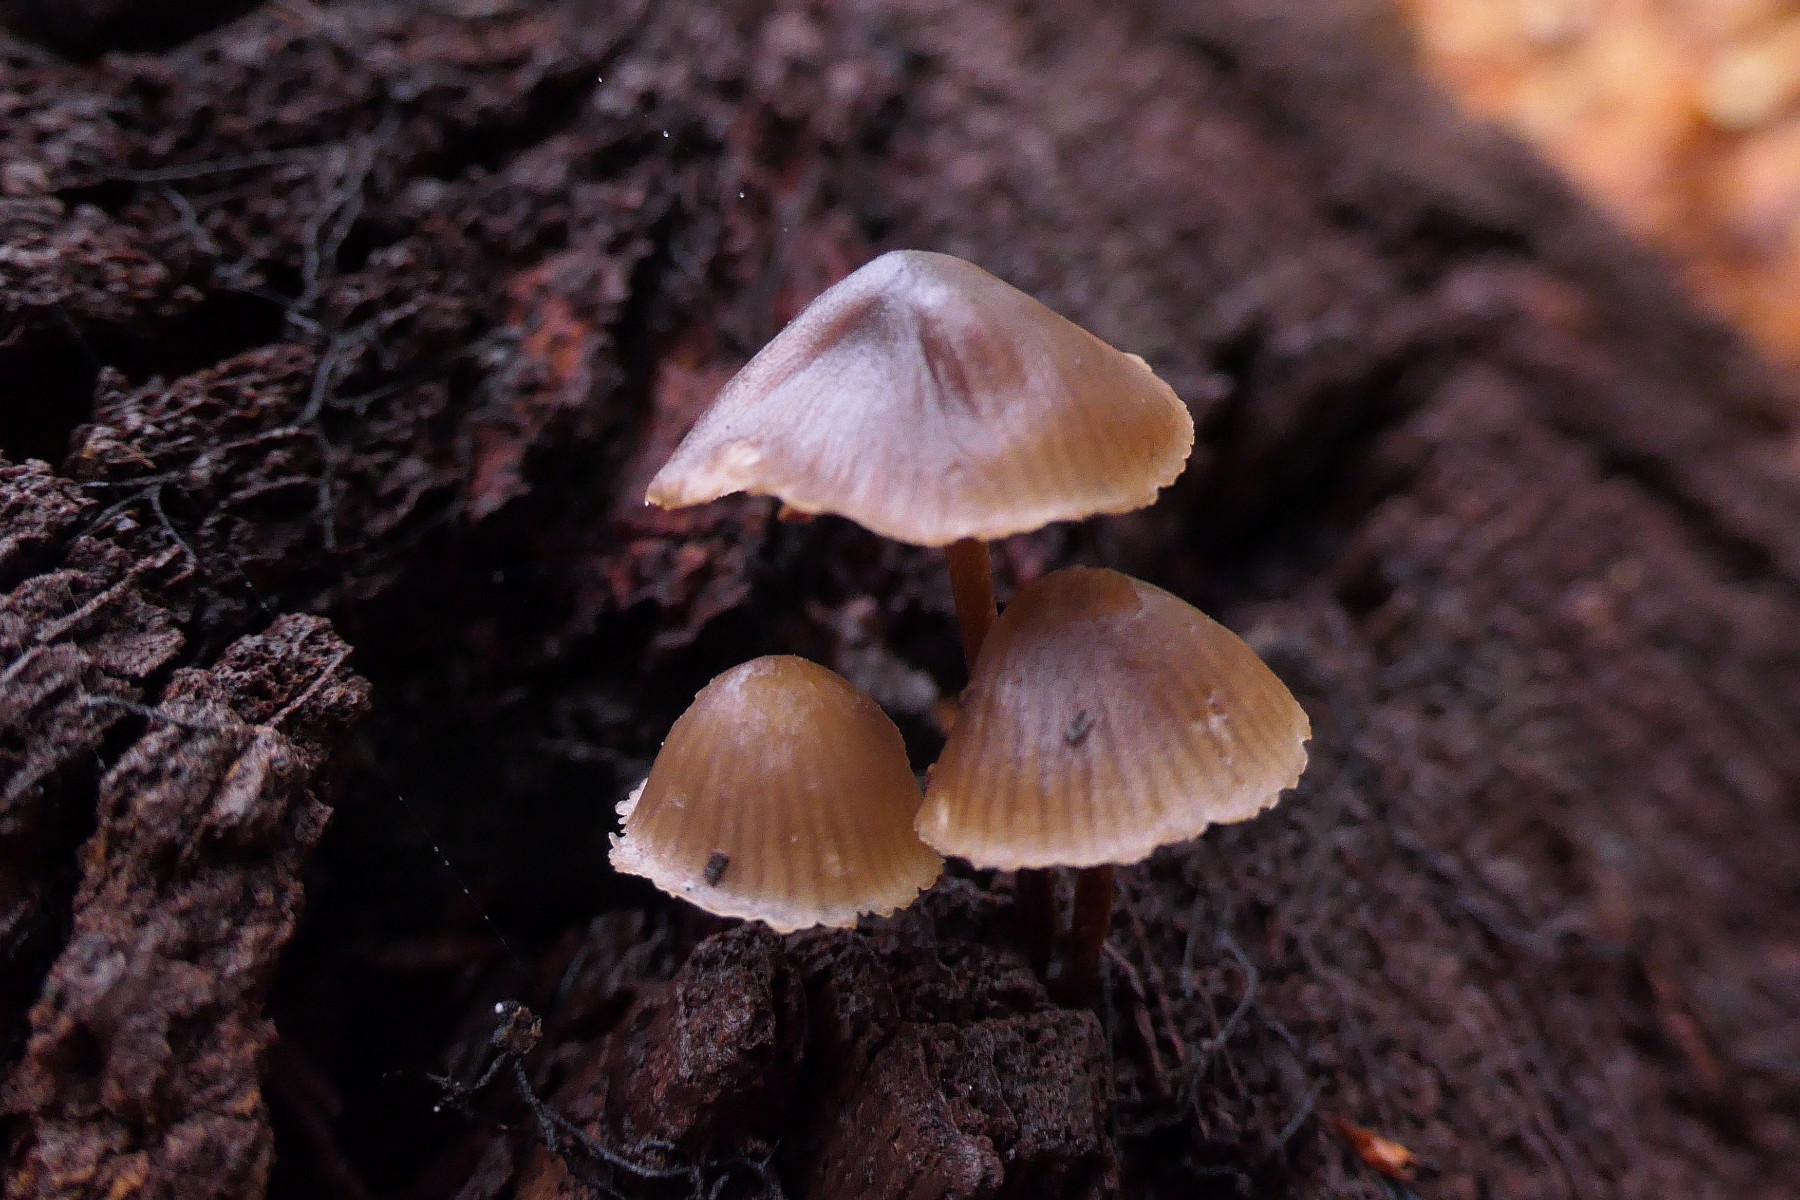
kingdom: Fungi
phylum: Basidiomycota
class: Agaricomycetes
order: Agaricales
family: Mycenaceae
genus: Mycena
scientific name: Mycena inclinata
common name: nikkende huesvamp
